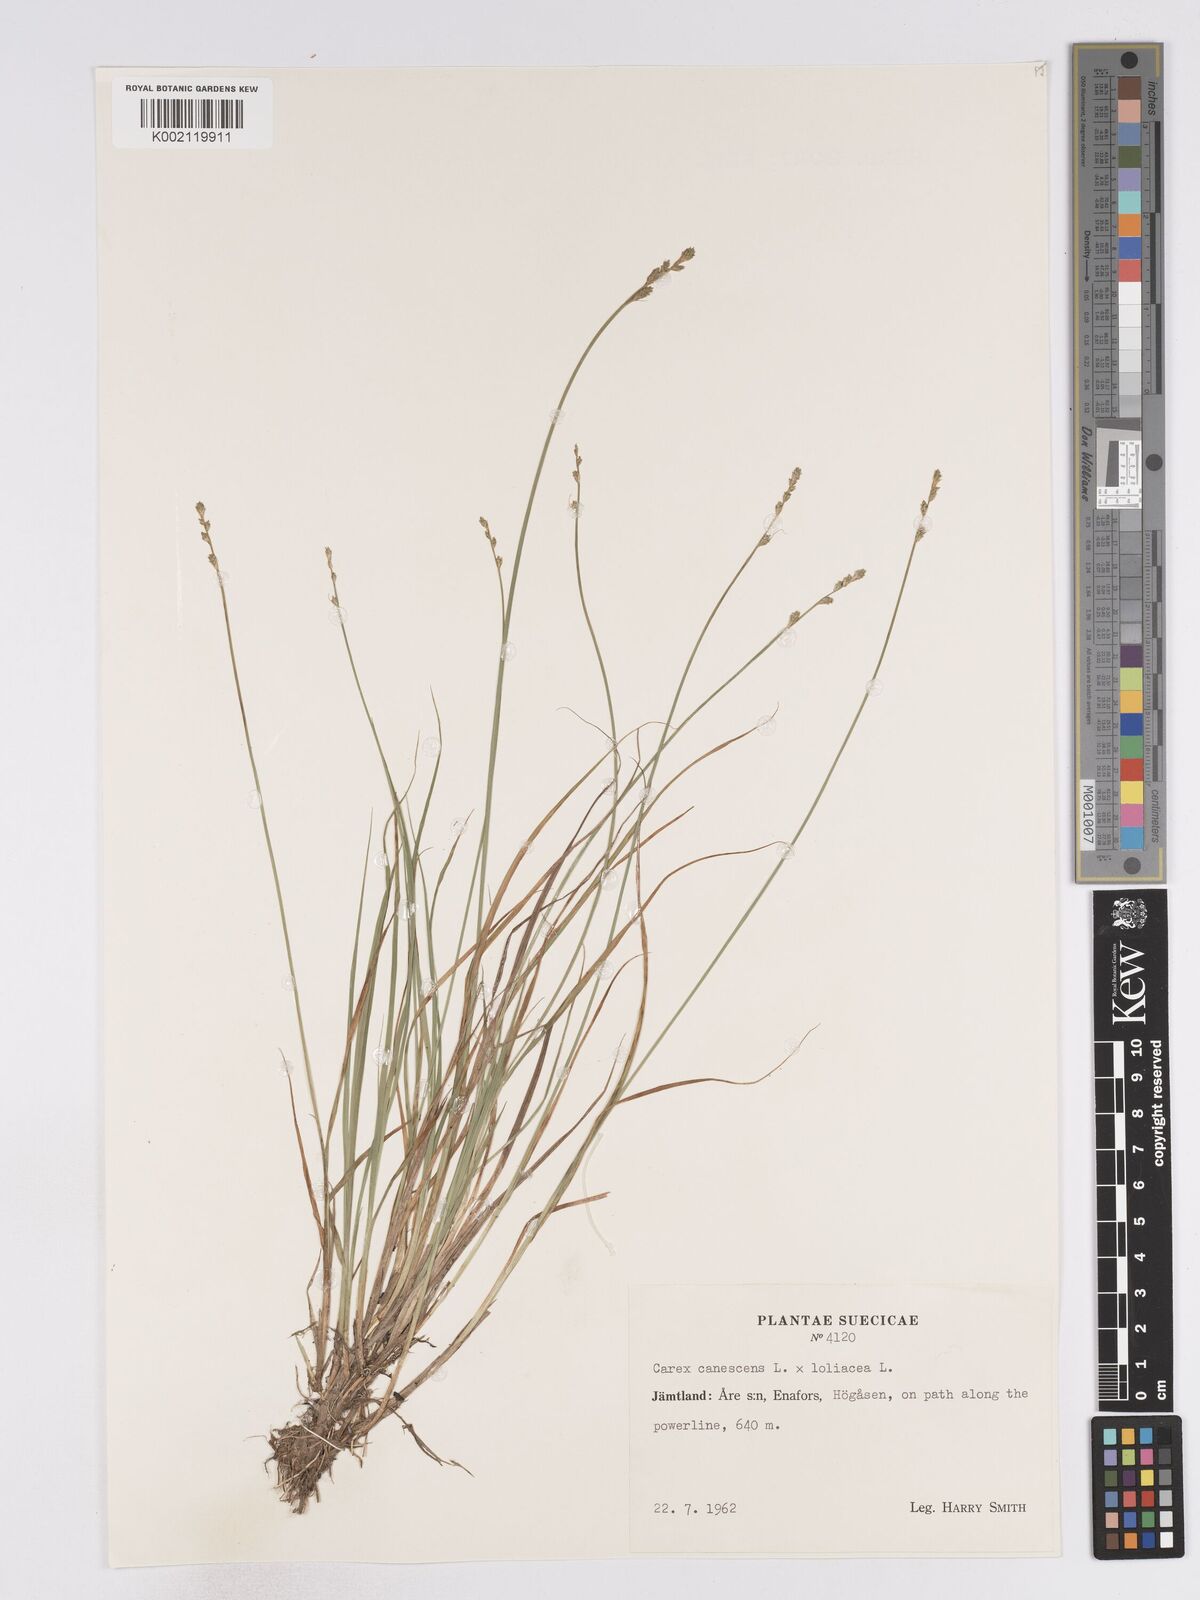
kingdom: Plantae
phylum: Tracheophyta
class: Liliopsida
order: Poales
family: Cyperaceae
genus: Carex
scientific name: Carex curta
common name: White sedge
